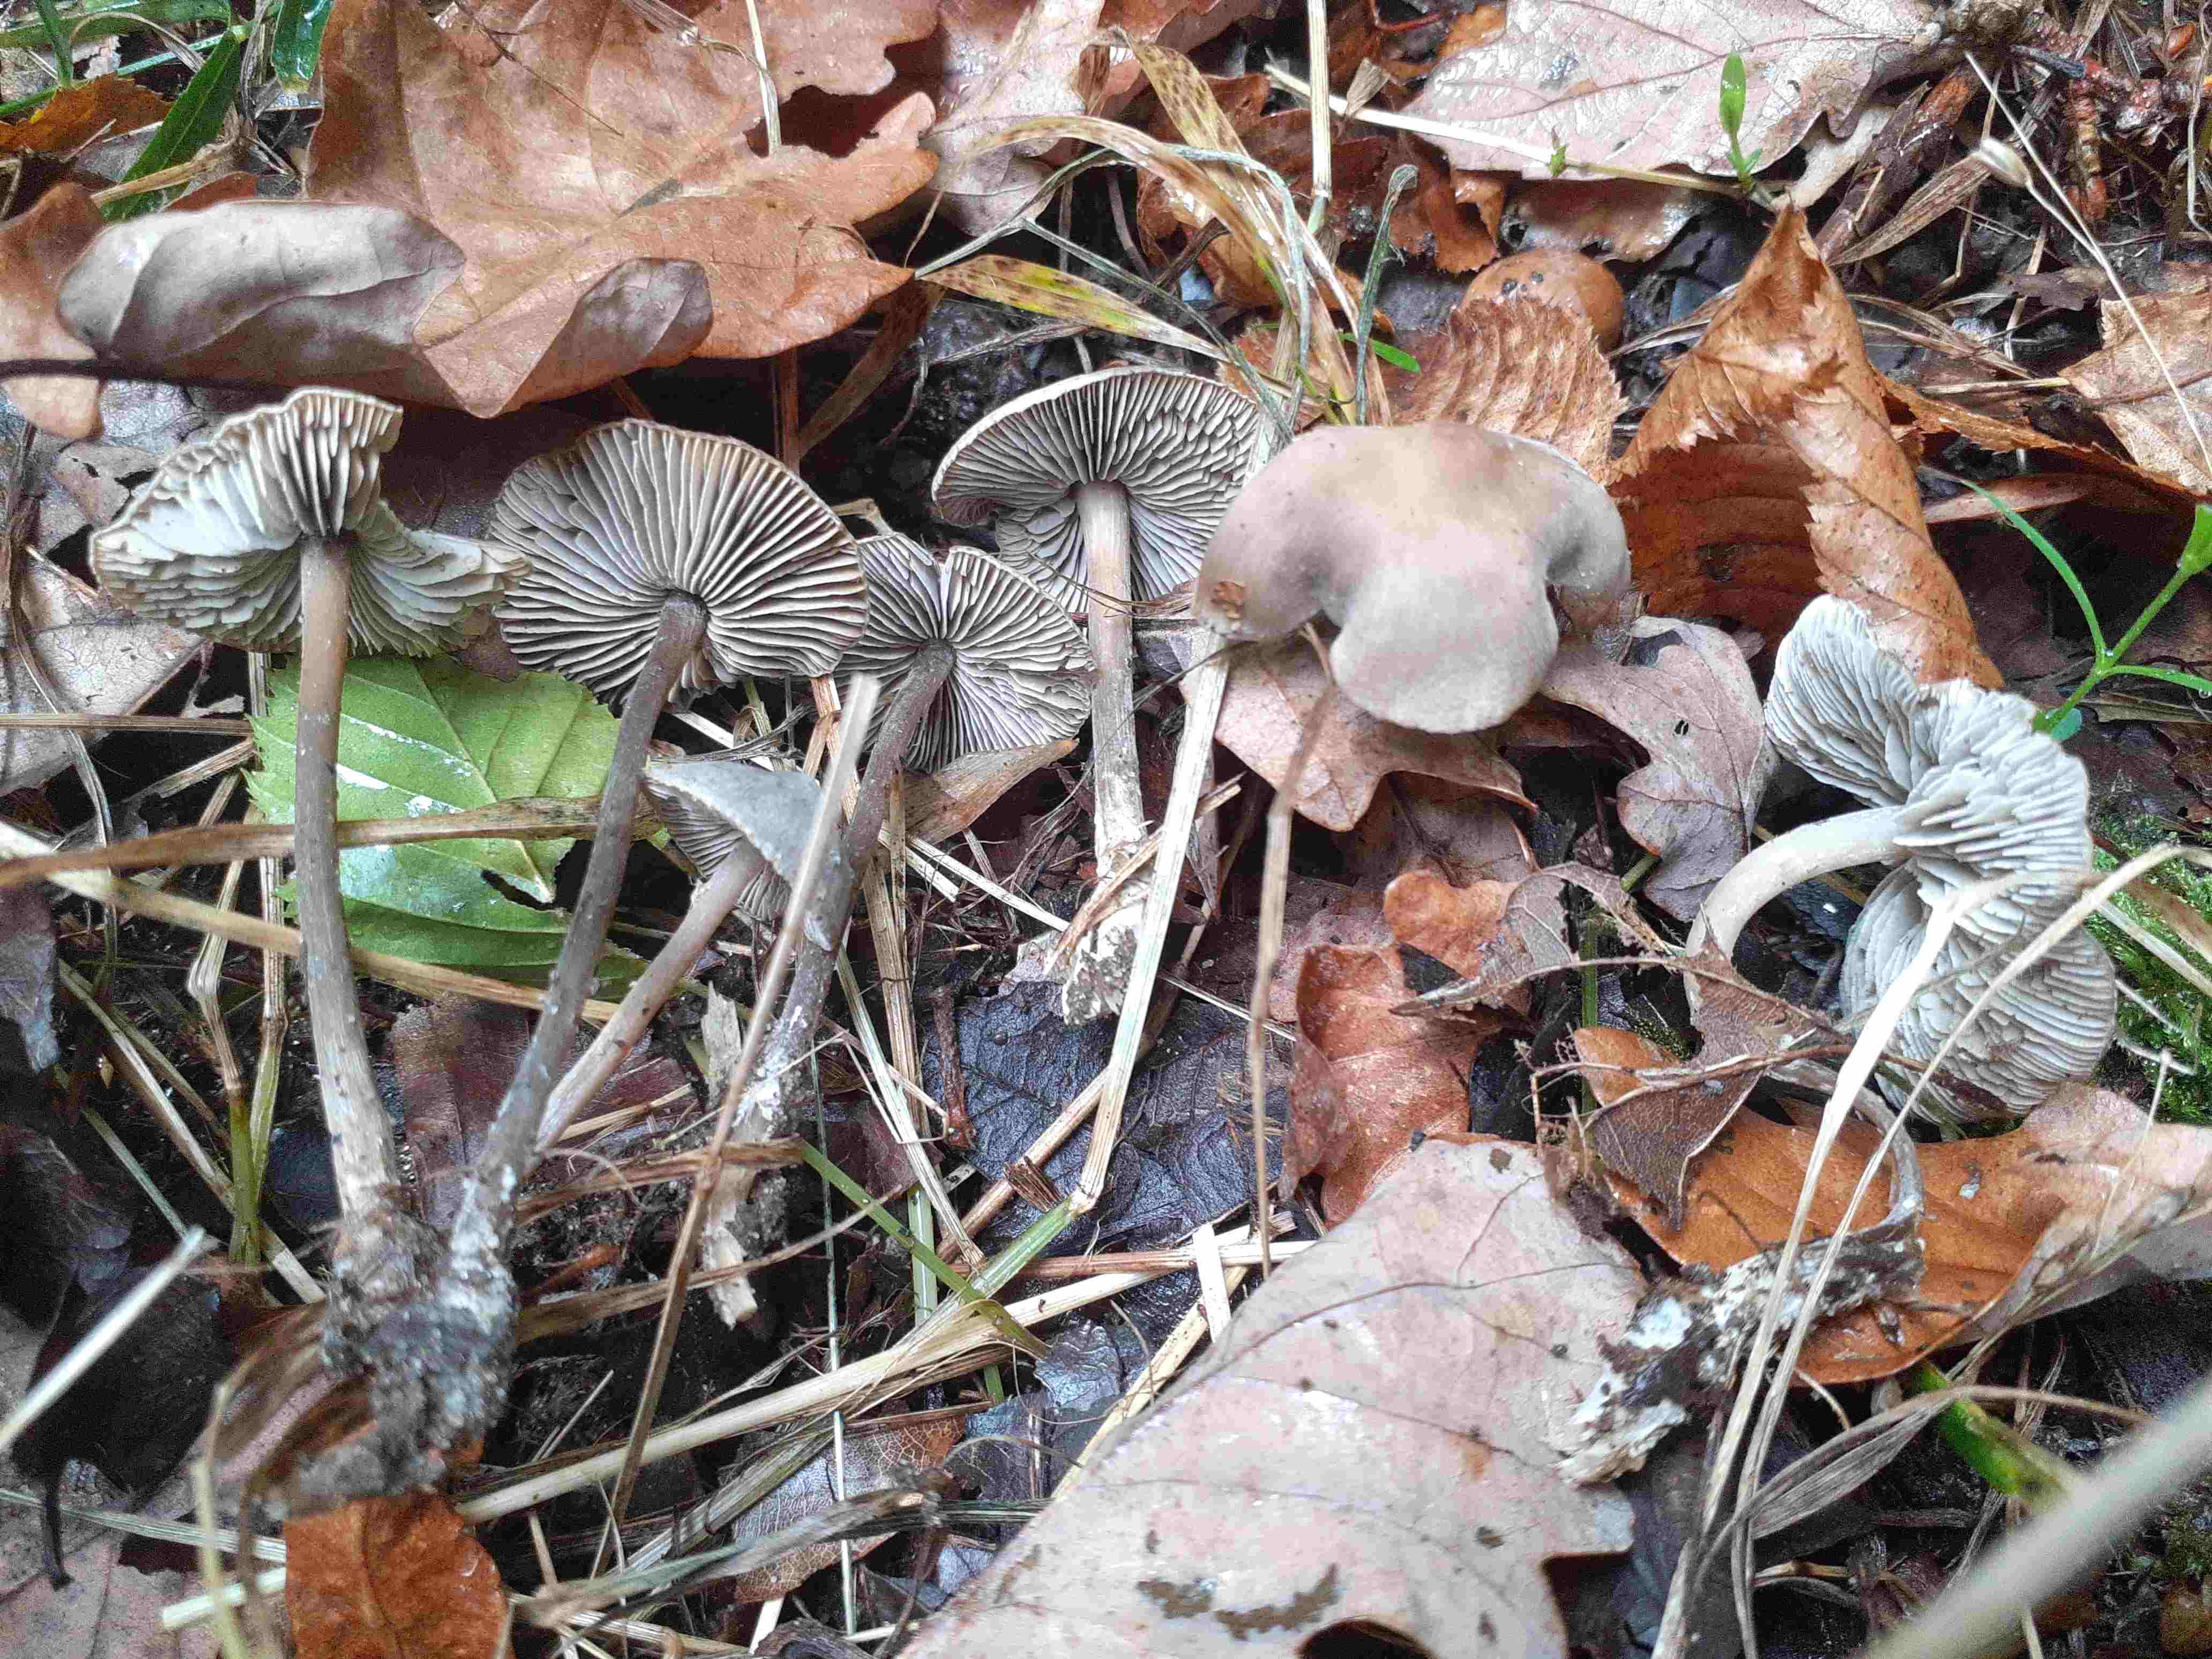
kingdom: Fungi
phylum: Basidiomycota
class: Agaricomycetes
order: Agaricales
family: Lyophyllaceae
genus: Tephrocybe
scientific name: Tephrocybe rancida
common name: mel-gråblad
